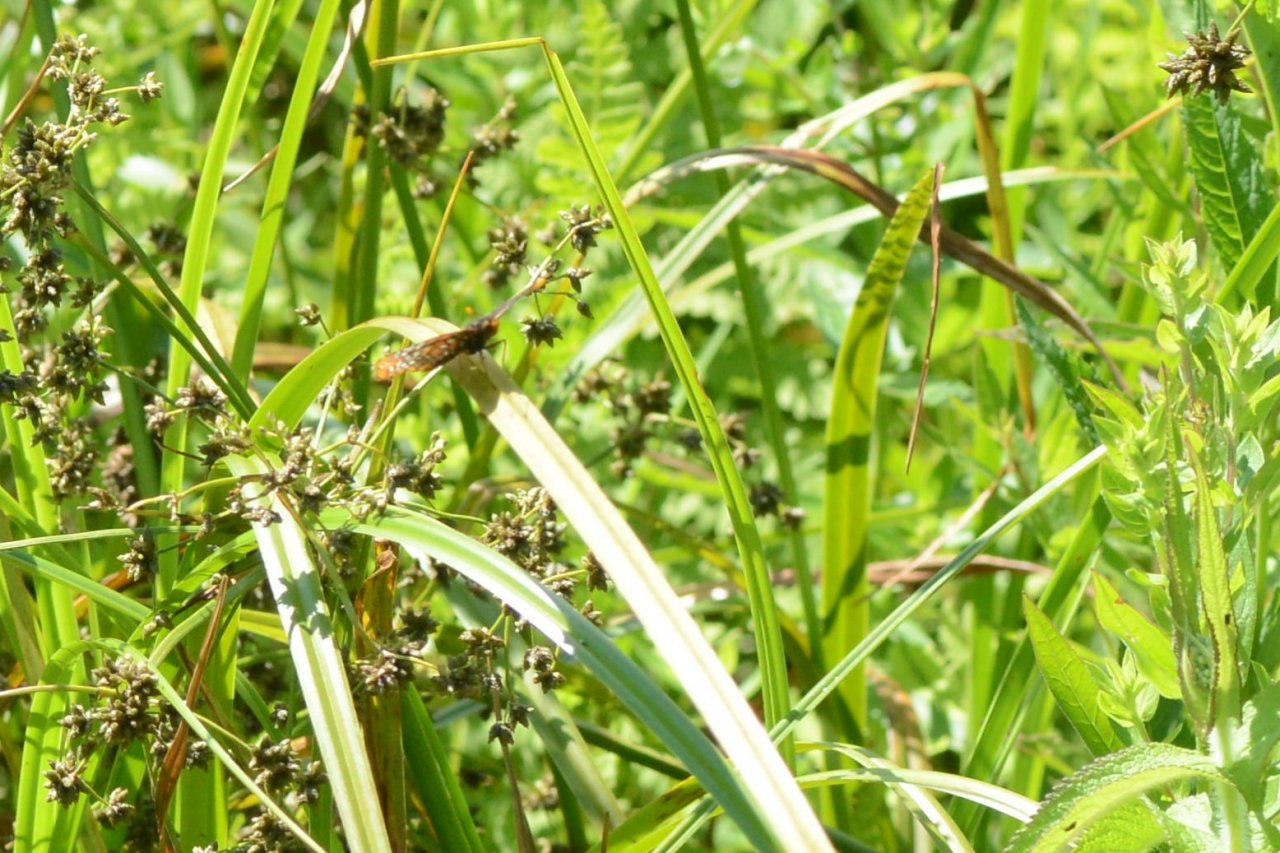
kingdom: Animalia
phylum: Arthropoda
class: Insecta
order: Lepidoptera
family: Nymphalidae
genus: Euphydryas
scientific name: Euphydryas phaeton
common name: Baltimore Checkerspot
